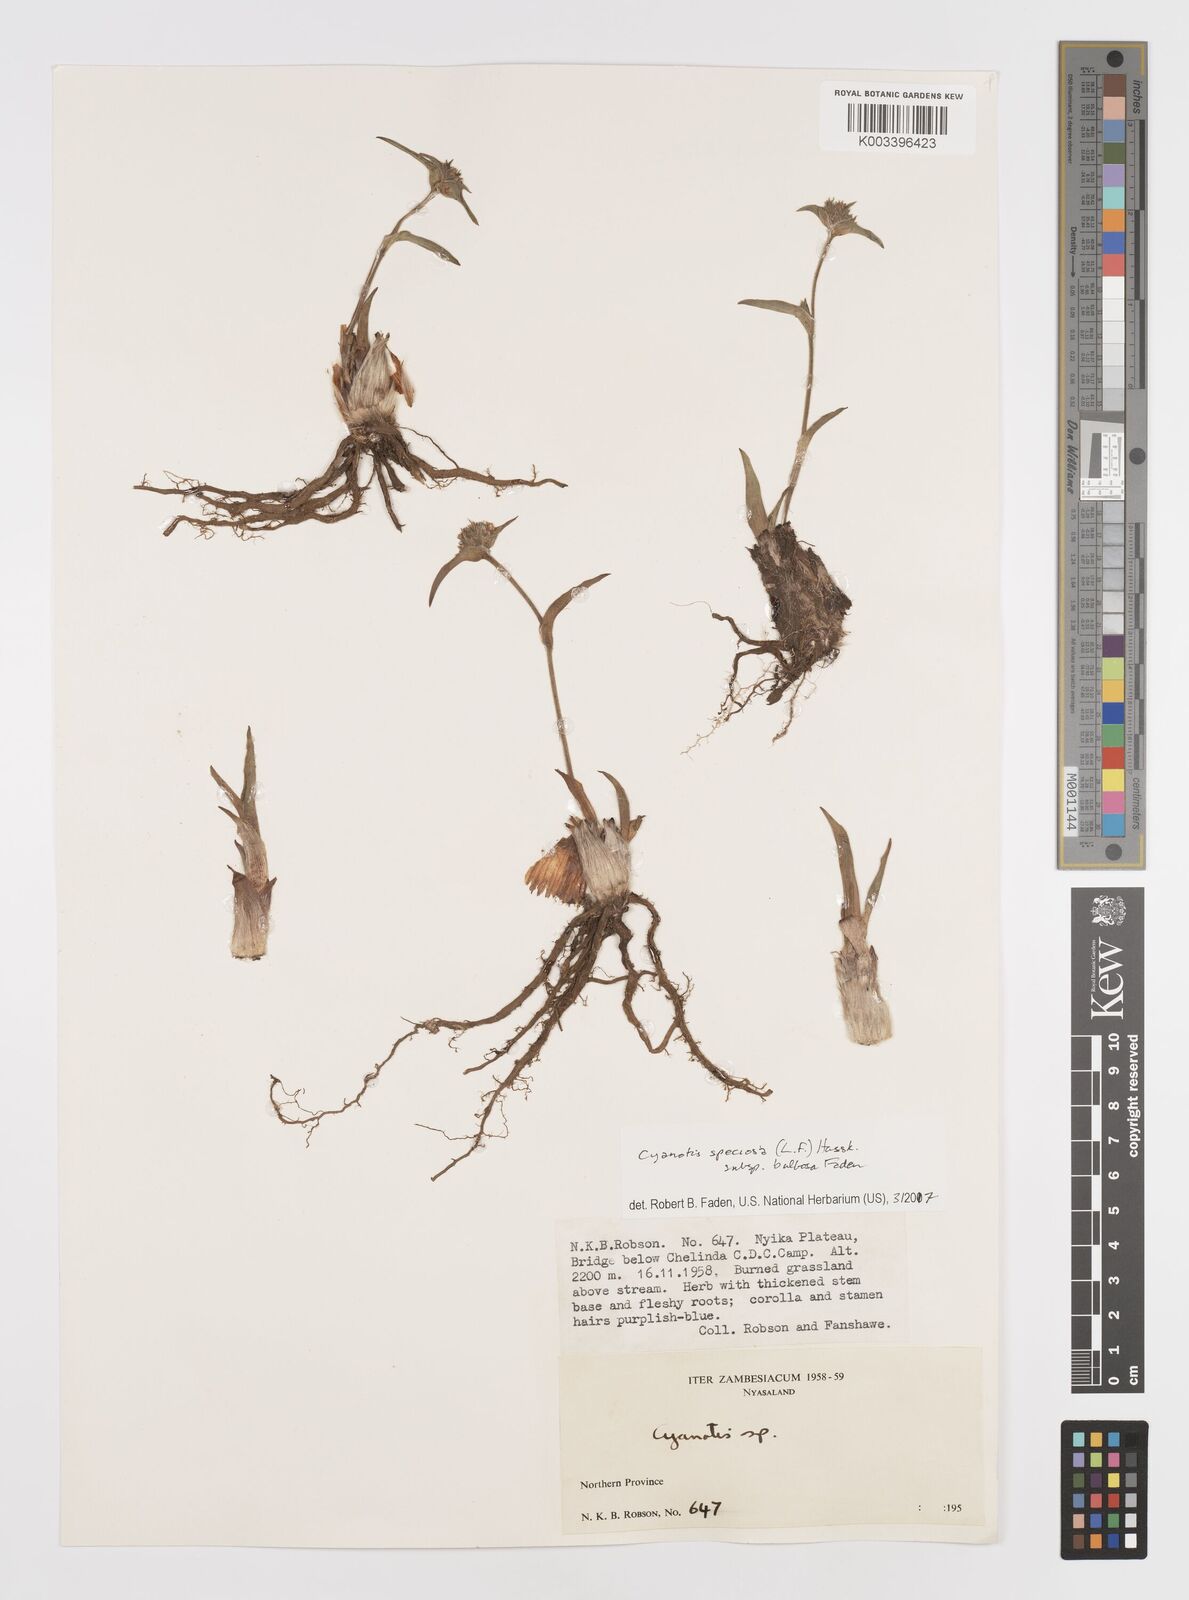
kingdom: Plantae
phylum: Tracheophyta
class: Liliopsida
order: Commelinales
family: Commelinaceae
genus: Cyanotis
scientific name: Cyanotis speciosa
